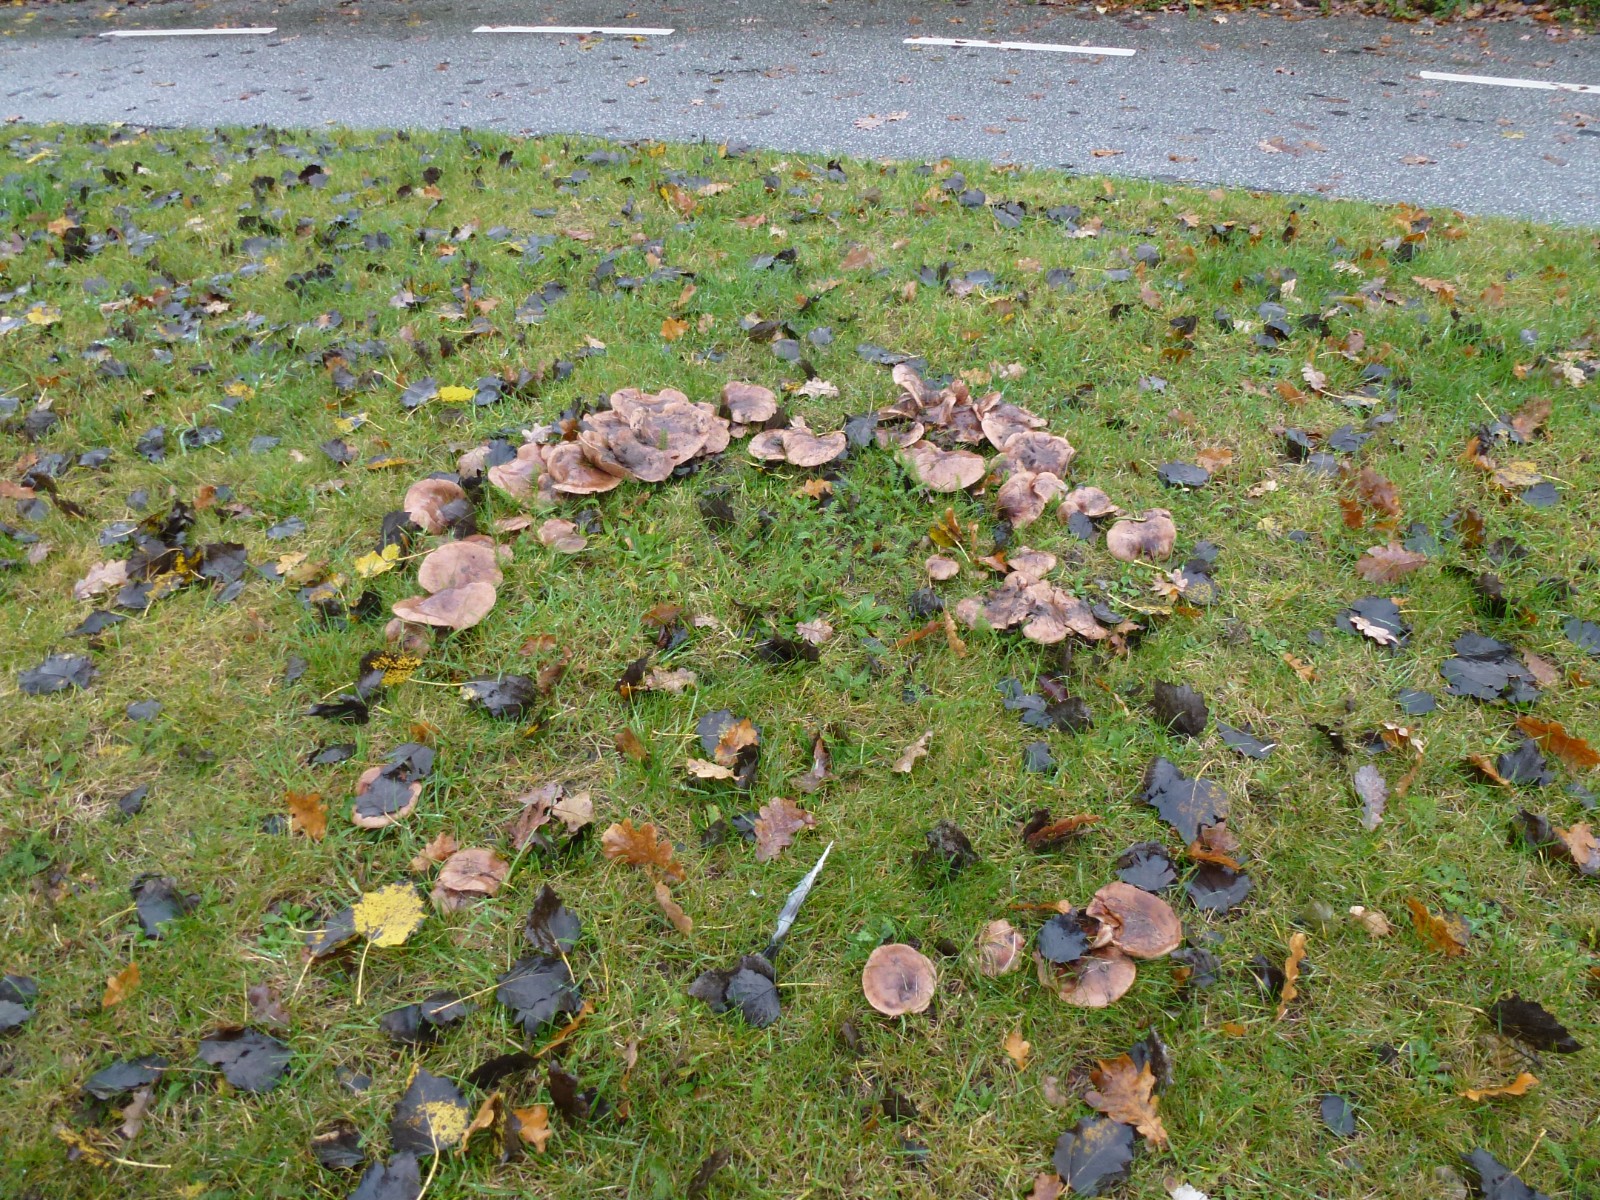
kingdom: Fungi
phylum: Basidiomycota
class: Agaricomycetes
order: Agaricales
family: Tricholomataceae
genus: Tricholoma
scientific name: Tricholoma populinum
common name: poppel-ridderhat
